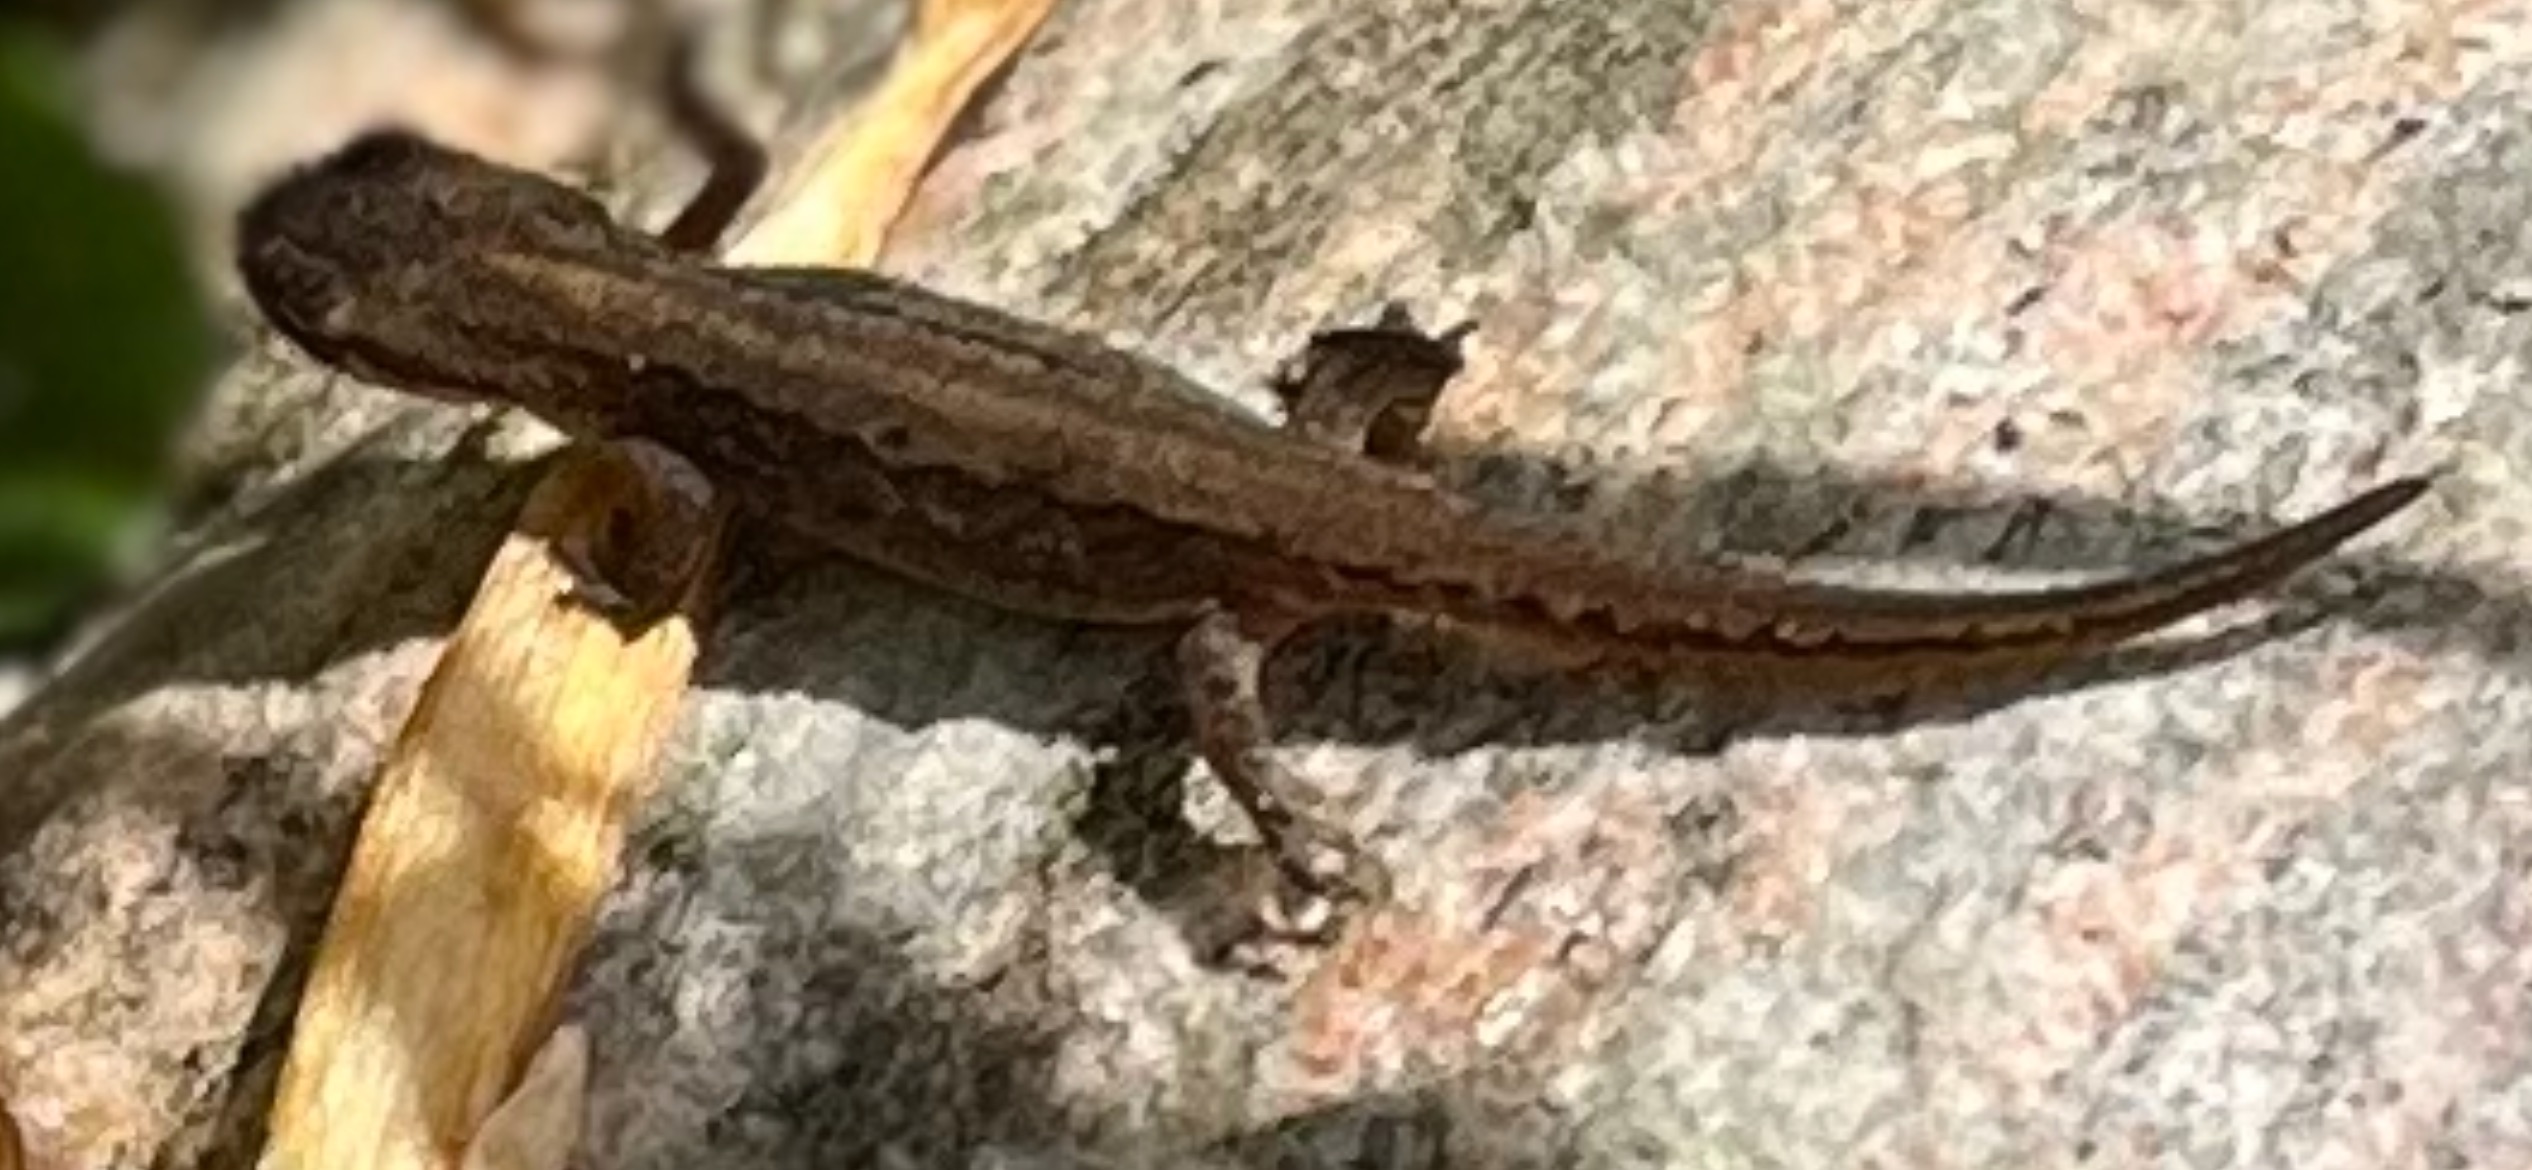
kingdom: Animalia
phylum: Chordata
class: Amphibia
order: Caudata
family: Salamandridae
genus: Lissotriton
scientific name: Lissotriton vulgaris
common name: Lille vandsalamander
